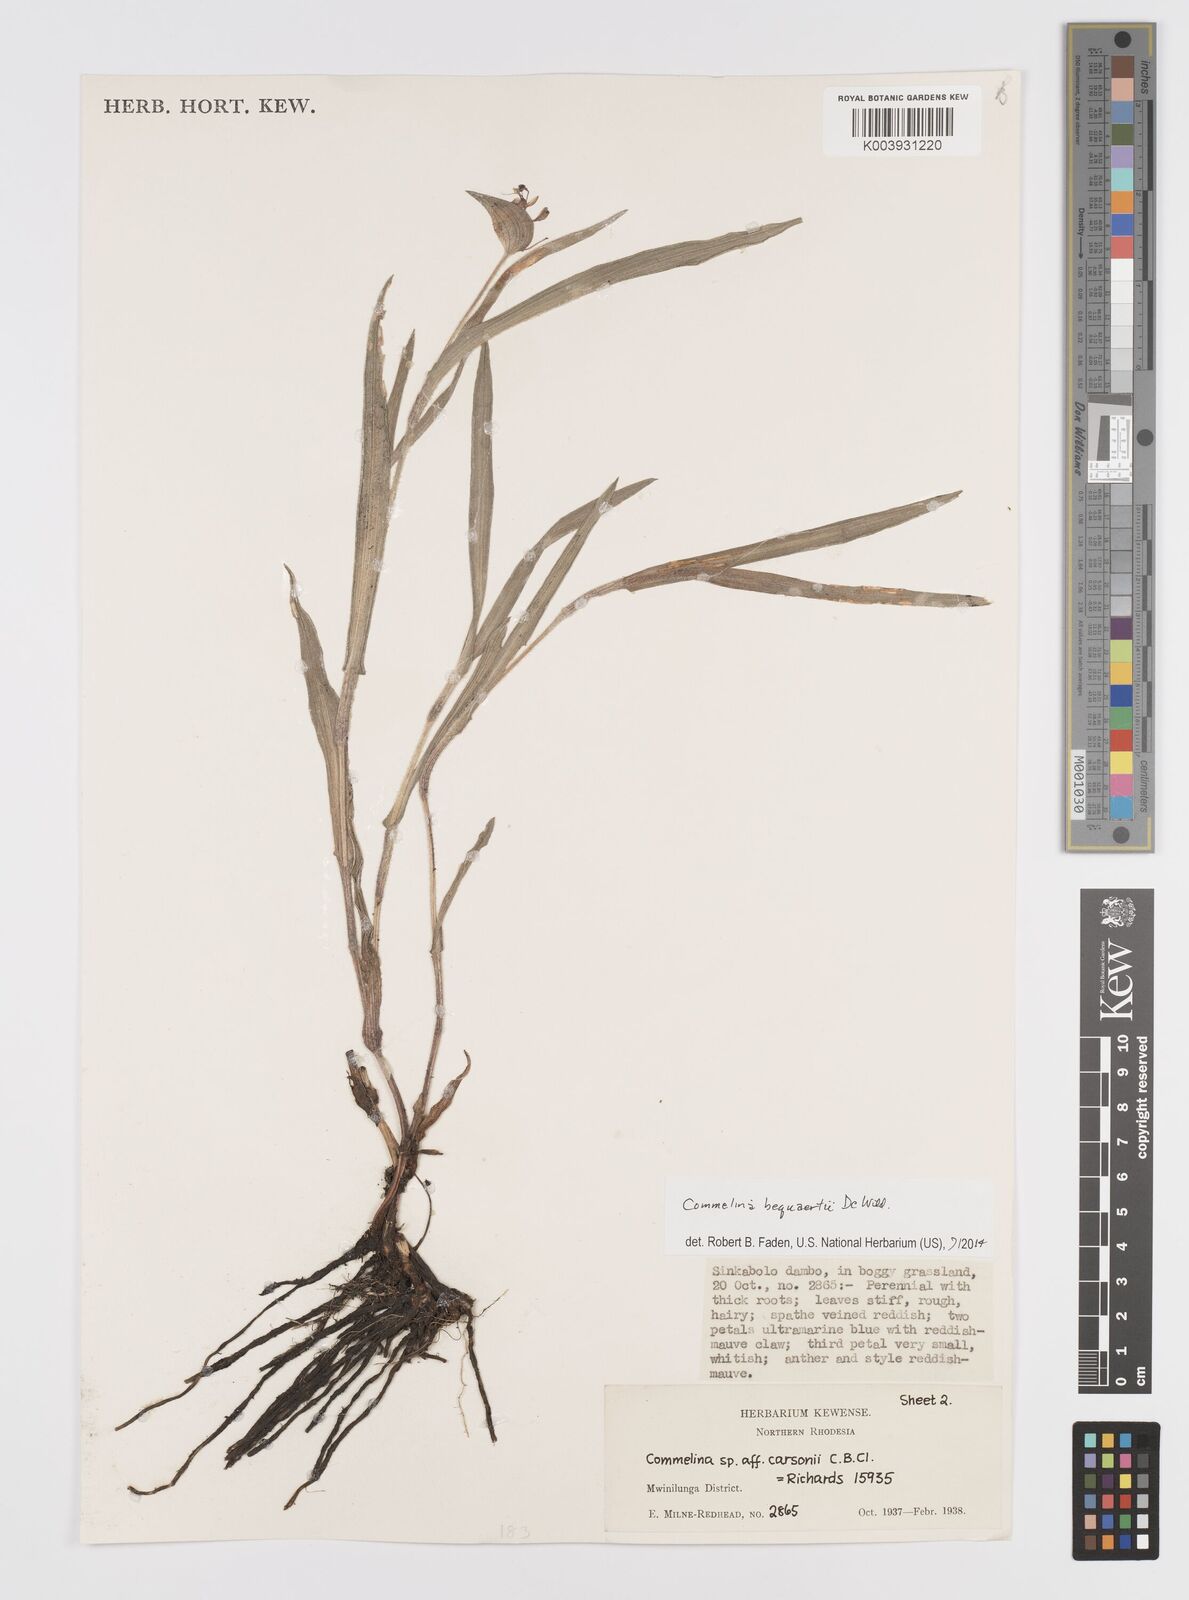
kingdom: Plantae
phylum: Tracheophyta
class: Liliopsida
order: Commelinales
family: Commelinaceae
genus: Commelina
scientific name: Commelina bequaertii
